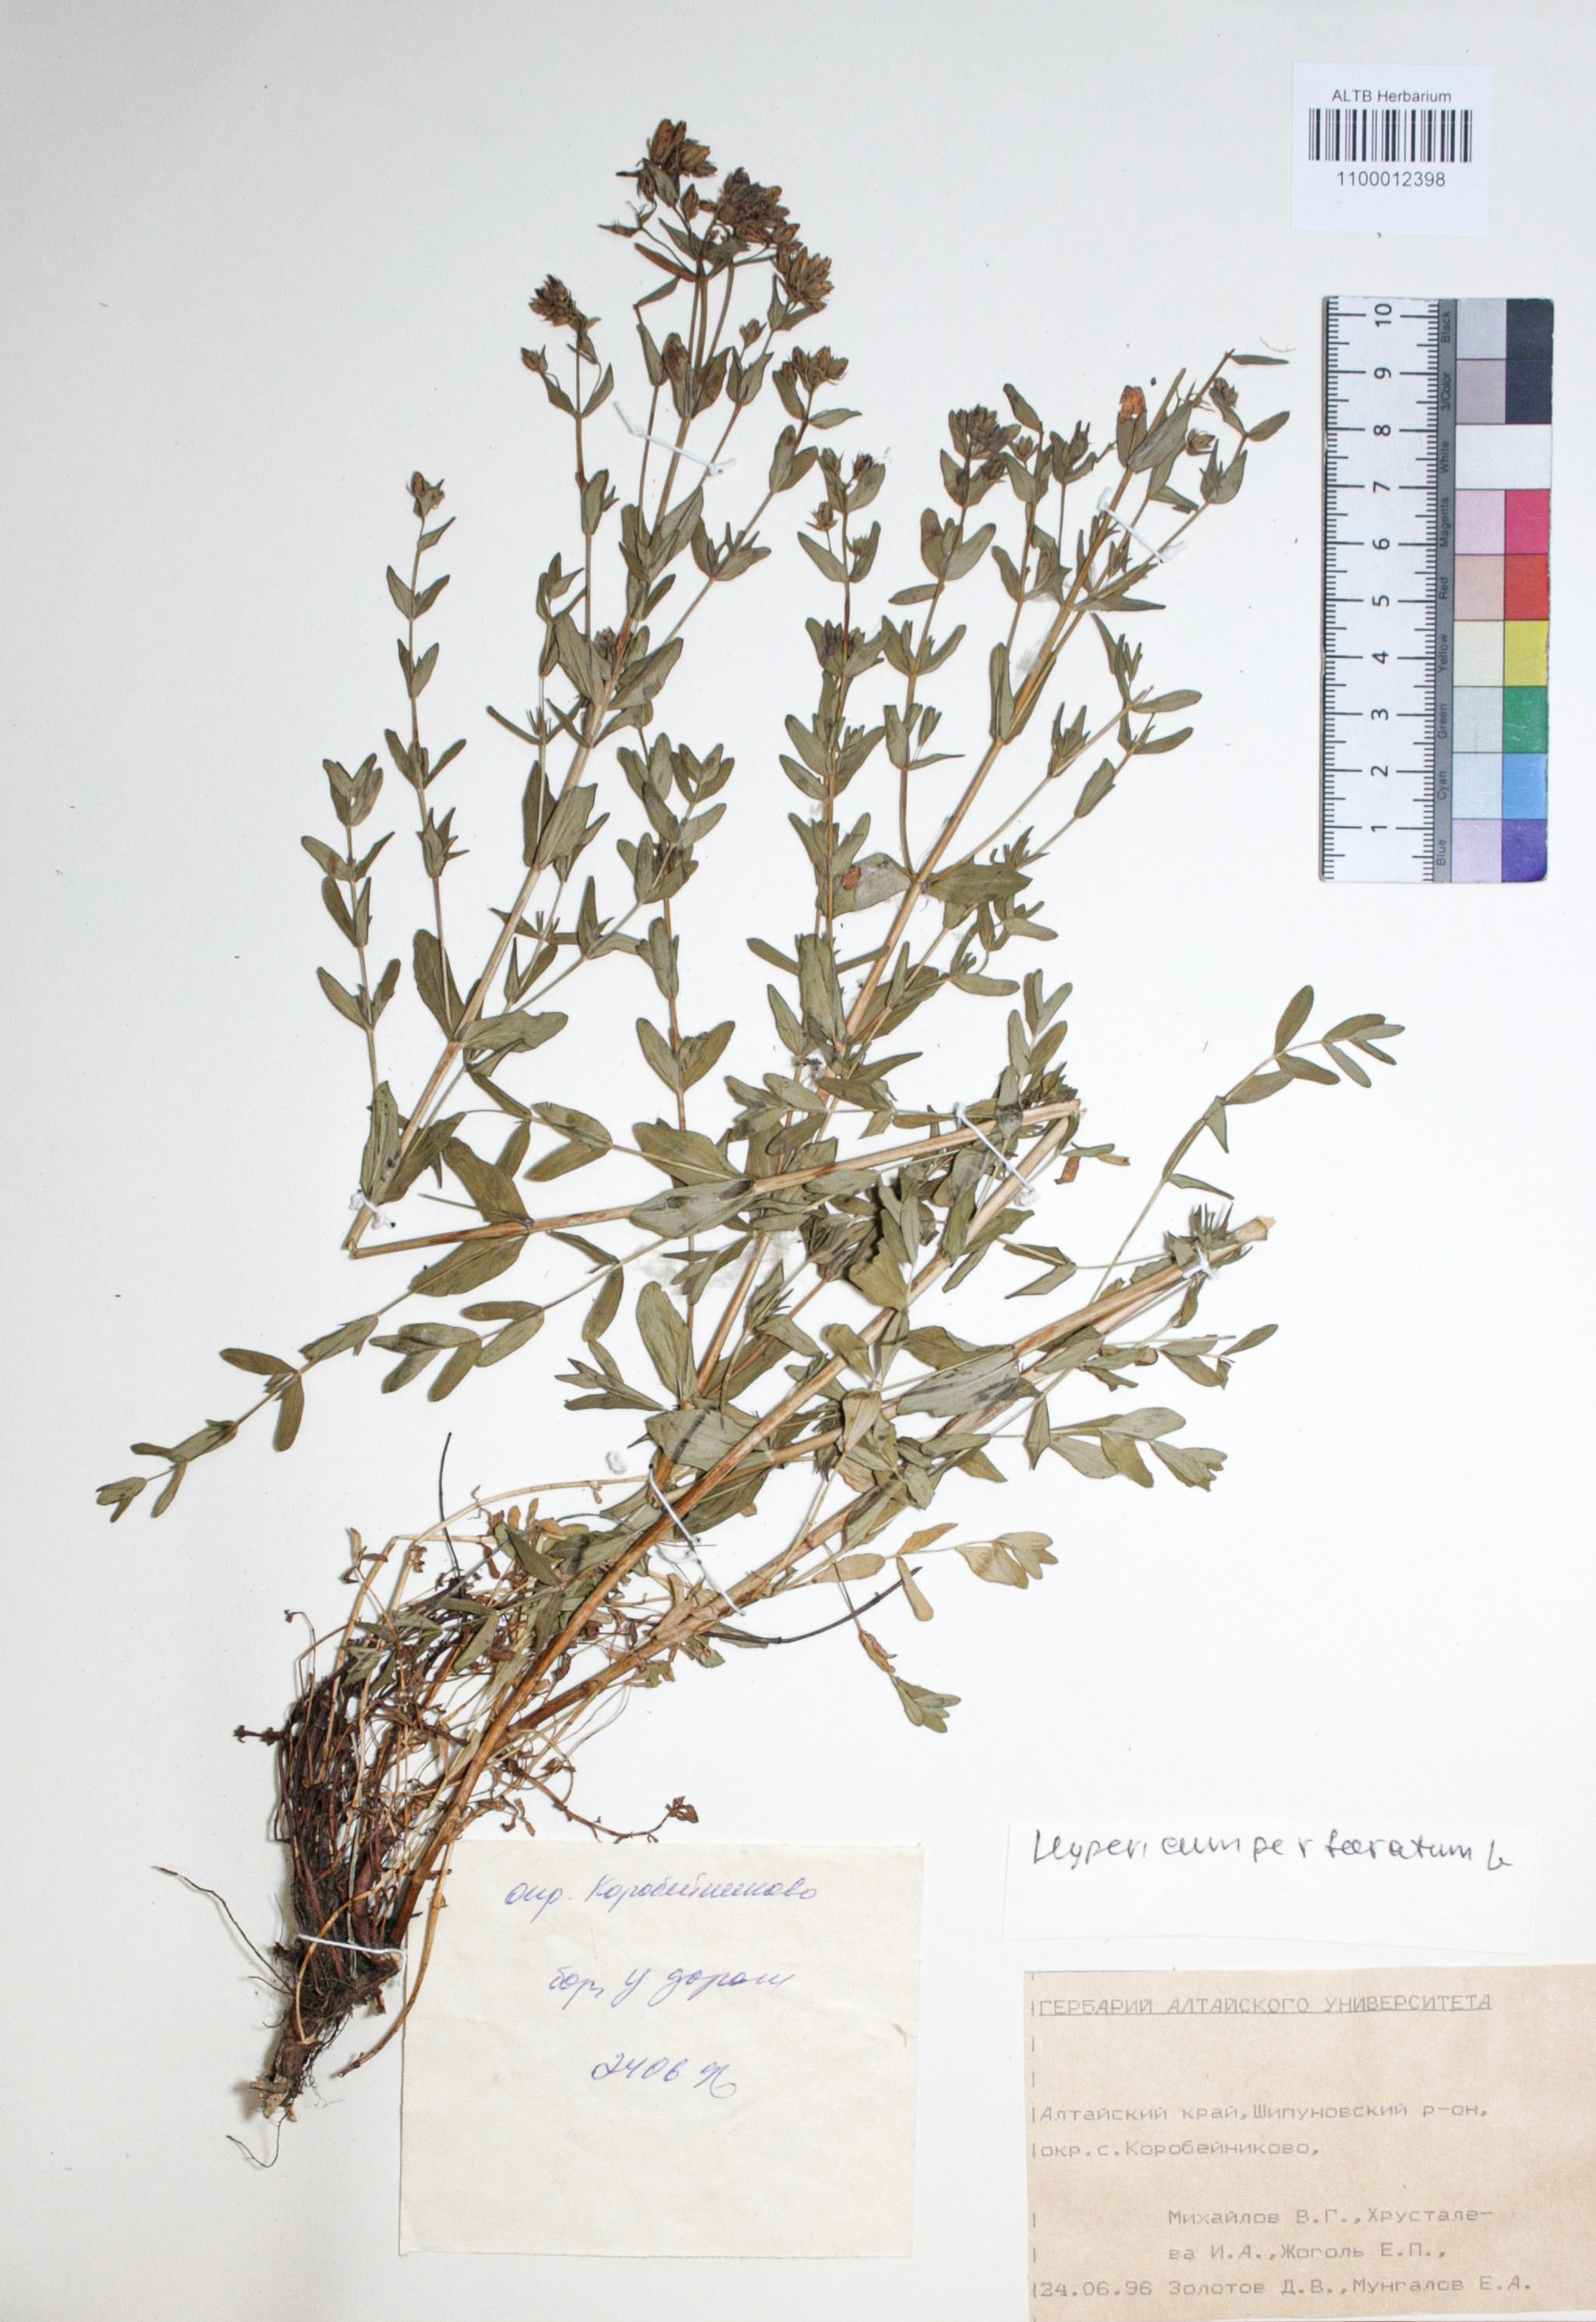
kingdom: Plantae
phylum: Tracheophyta
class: Magnoliopsida
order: Malpighiales
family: Hypericaceae
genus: Hypericum
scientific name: Hypericum perforatum
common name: Common st. johnswort
